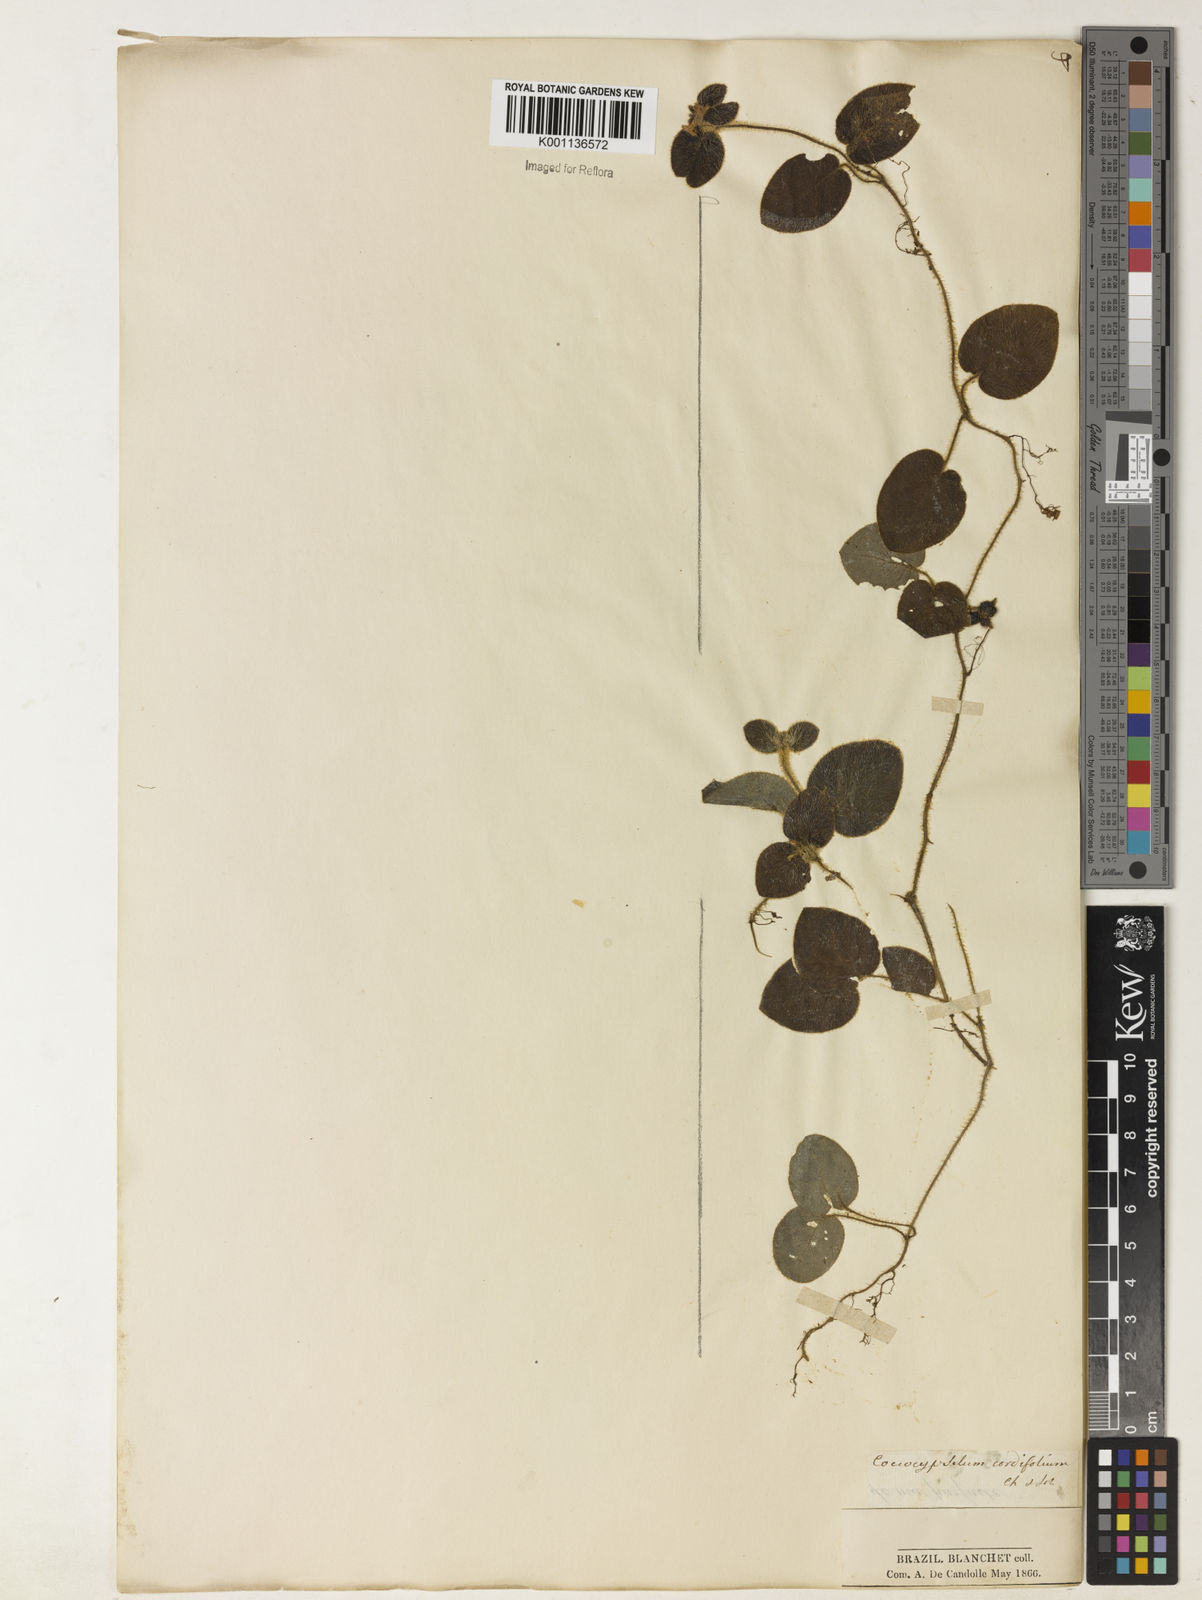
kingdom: Plantae
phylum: Tracheophyta
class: Magnoliopsida
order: Gentianales
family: Rubiaceae
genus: Coccocypselum
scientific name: Coccocypselum cordifolium
